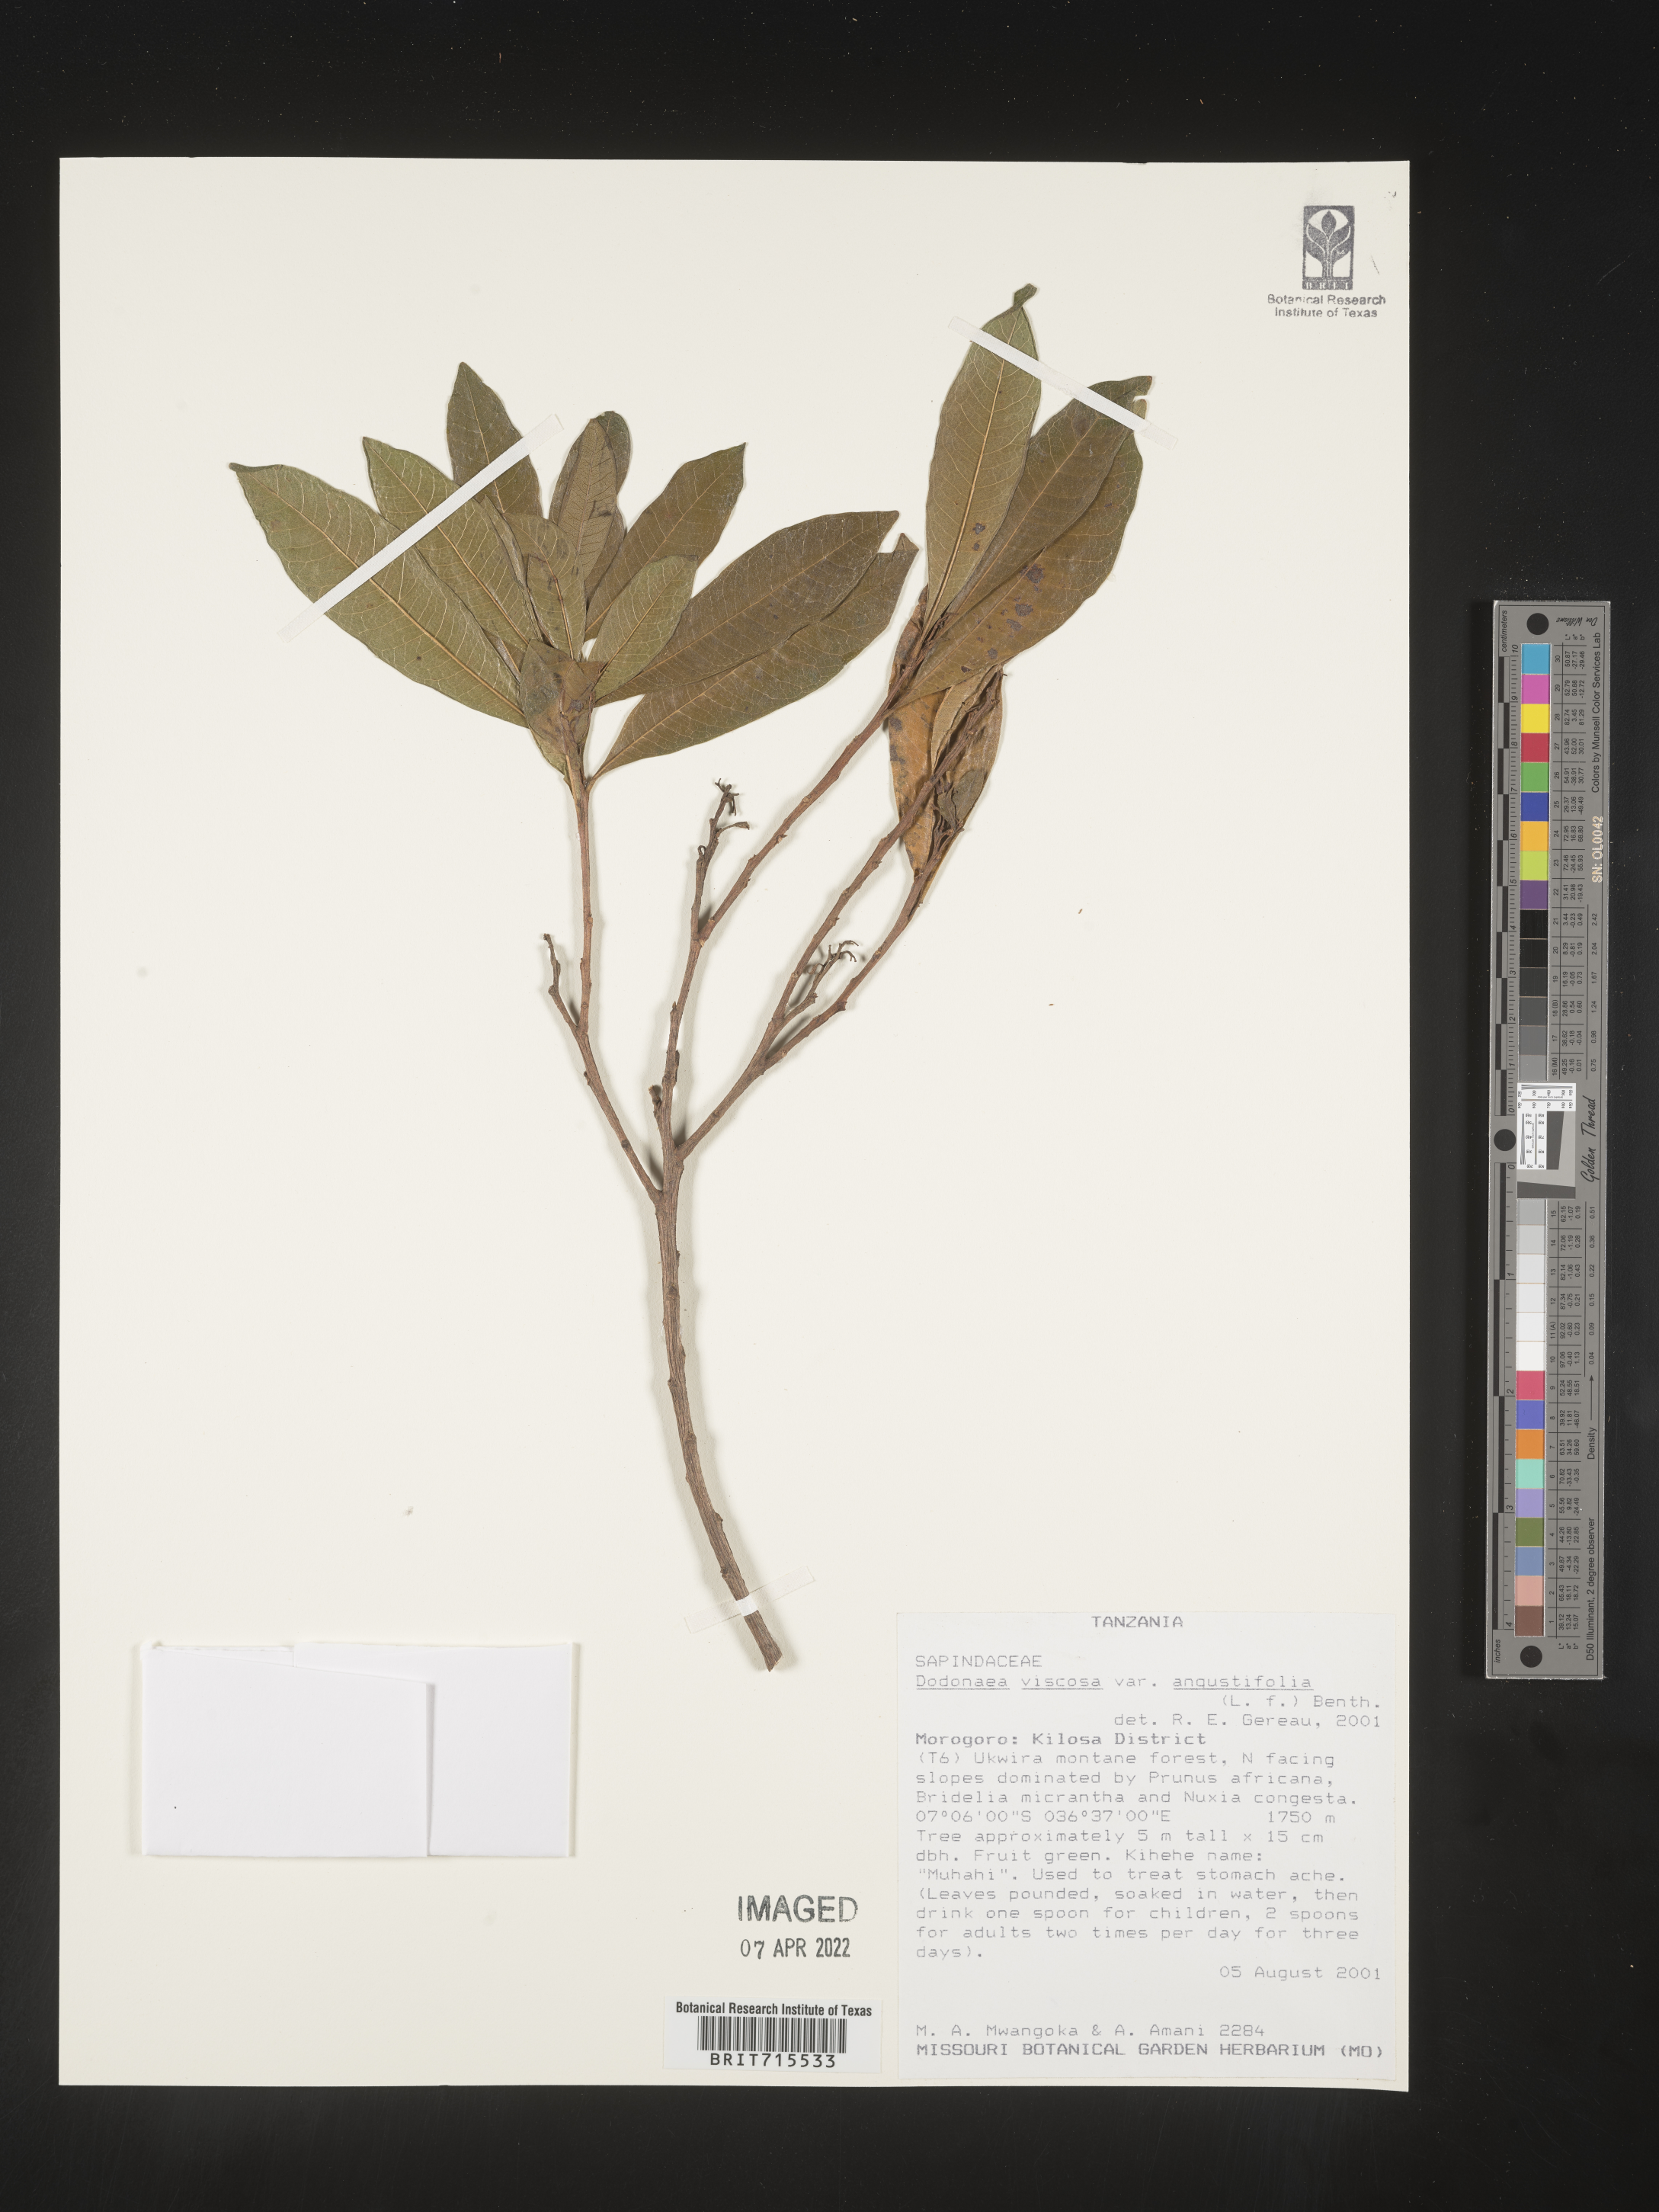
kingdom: Plantae
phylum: Tracheophyta
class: Magnoliopsida
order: Sapindales
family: Sapindaceae
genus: Dodonaea
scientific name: Dodonaea viscosa
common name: Hopbush
